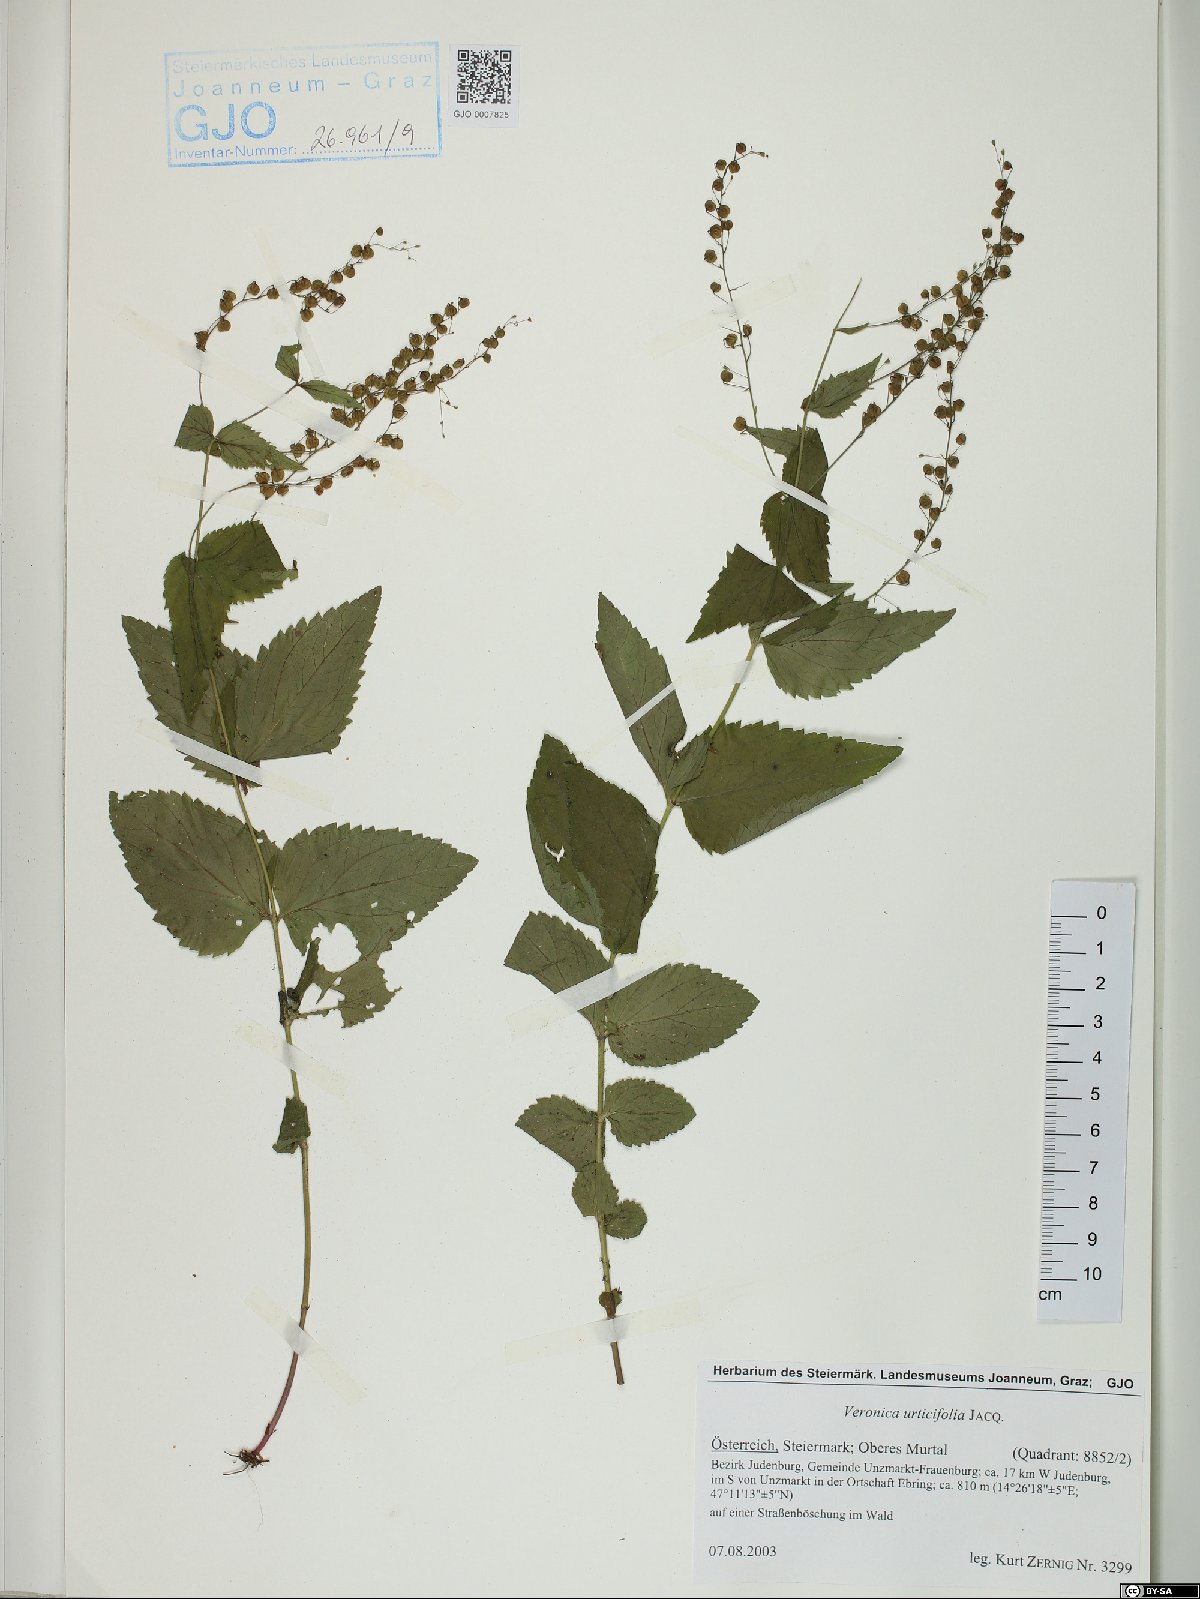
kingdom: Plantae
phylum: Tracheophyta
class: Magnoliopsida
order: Lamiales
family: Plantaginaceae
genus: Veronica
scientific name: Veronica urticifolia
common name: Nettle-leaf speedwell
